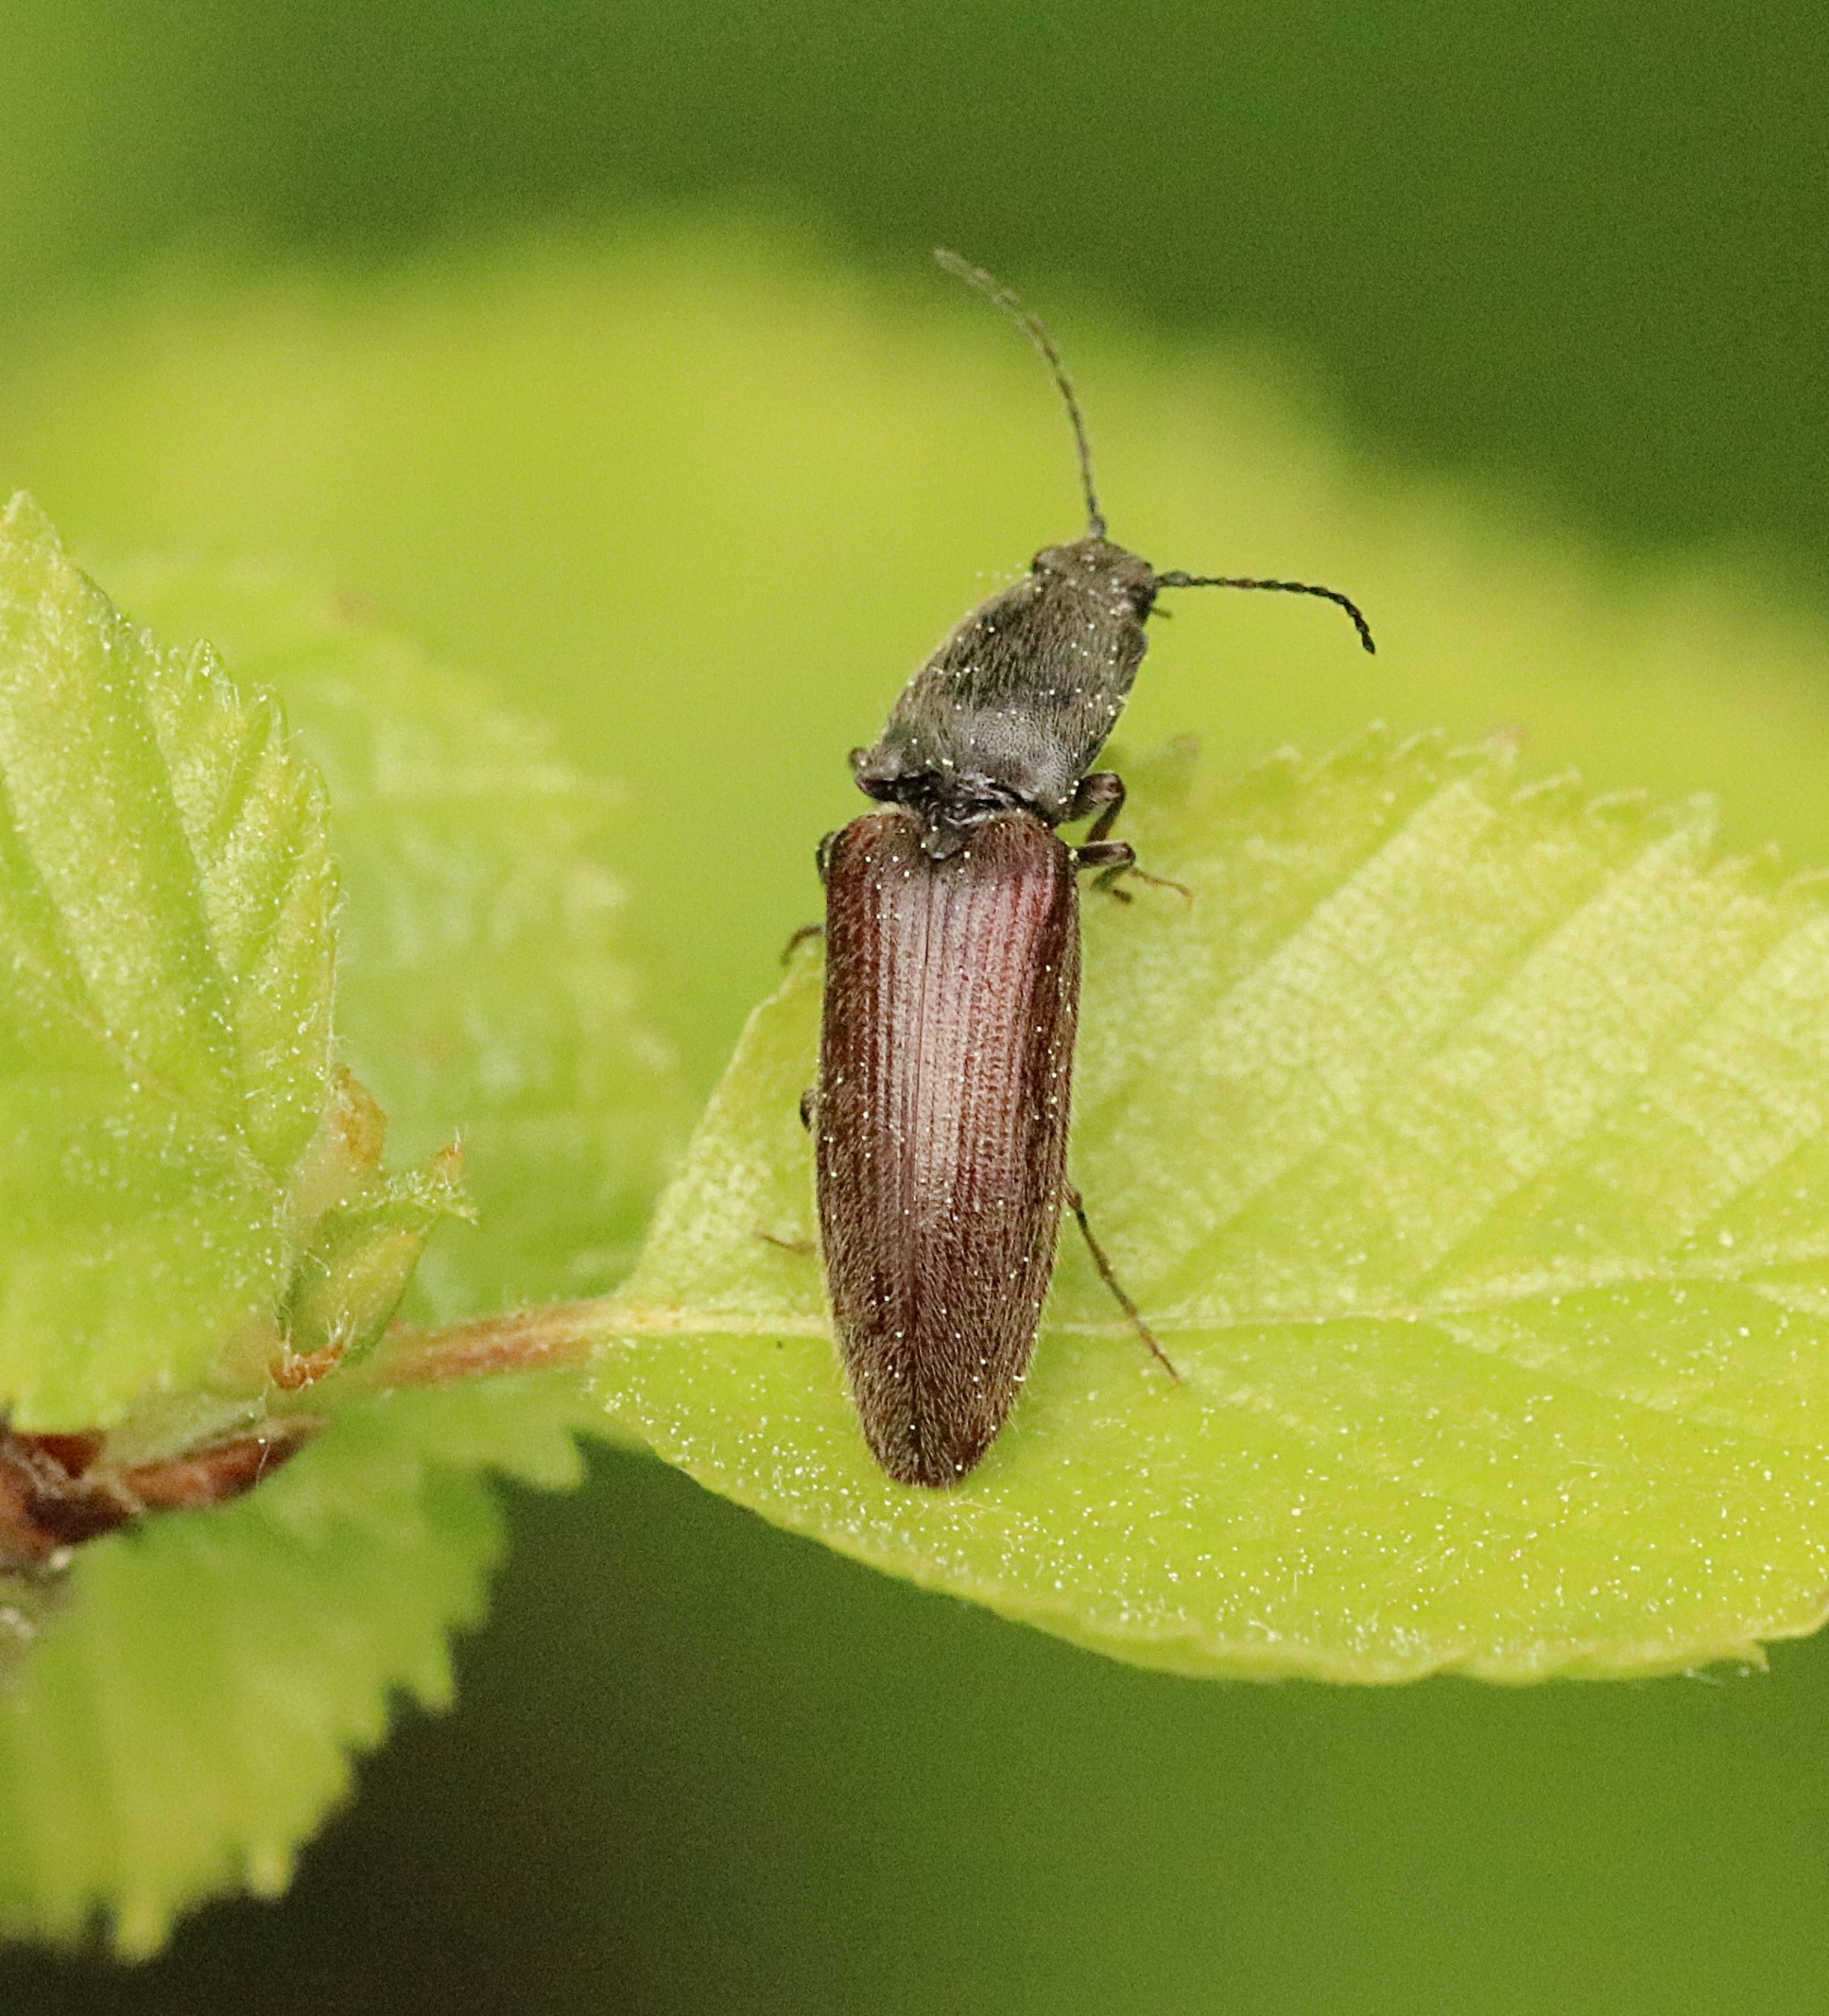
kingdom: Animalia
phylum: Arthropoda
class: Insecta
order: Coleoptera
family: Elateridae
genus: Athous
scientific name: Athous haemorrhoidalis
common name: Rødhalet busksmælder
